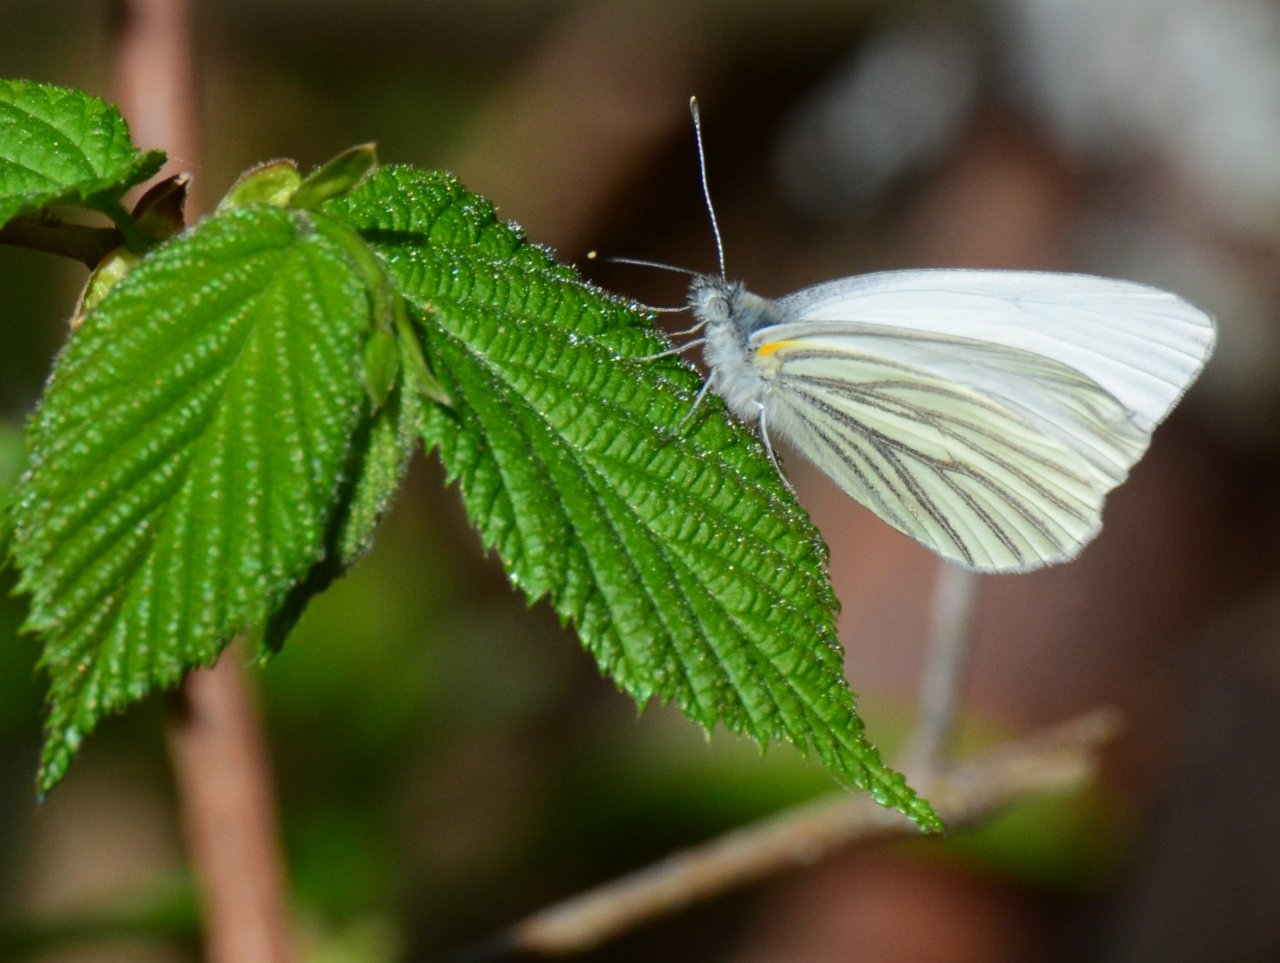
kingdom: Animalia
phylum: Arthropoda
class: Insecta
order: Lepidoptera
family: Pieridae
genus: Pieris
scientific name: Pieris oleracea
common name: Mustard White
